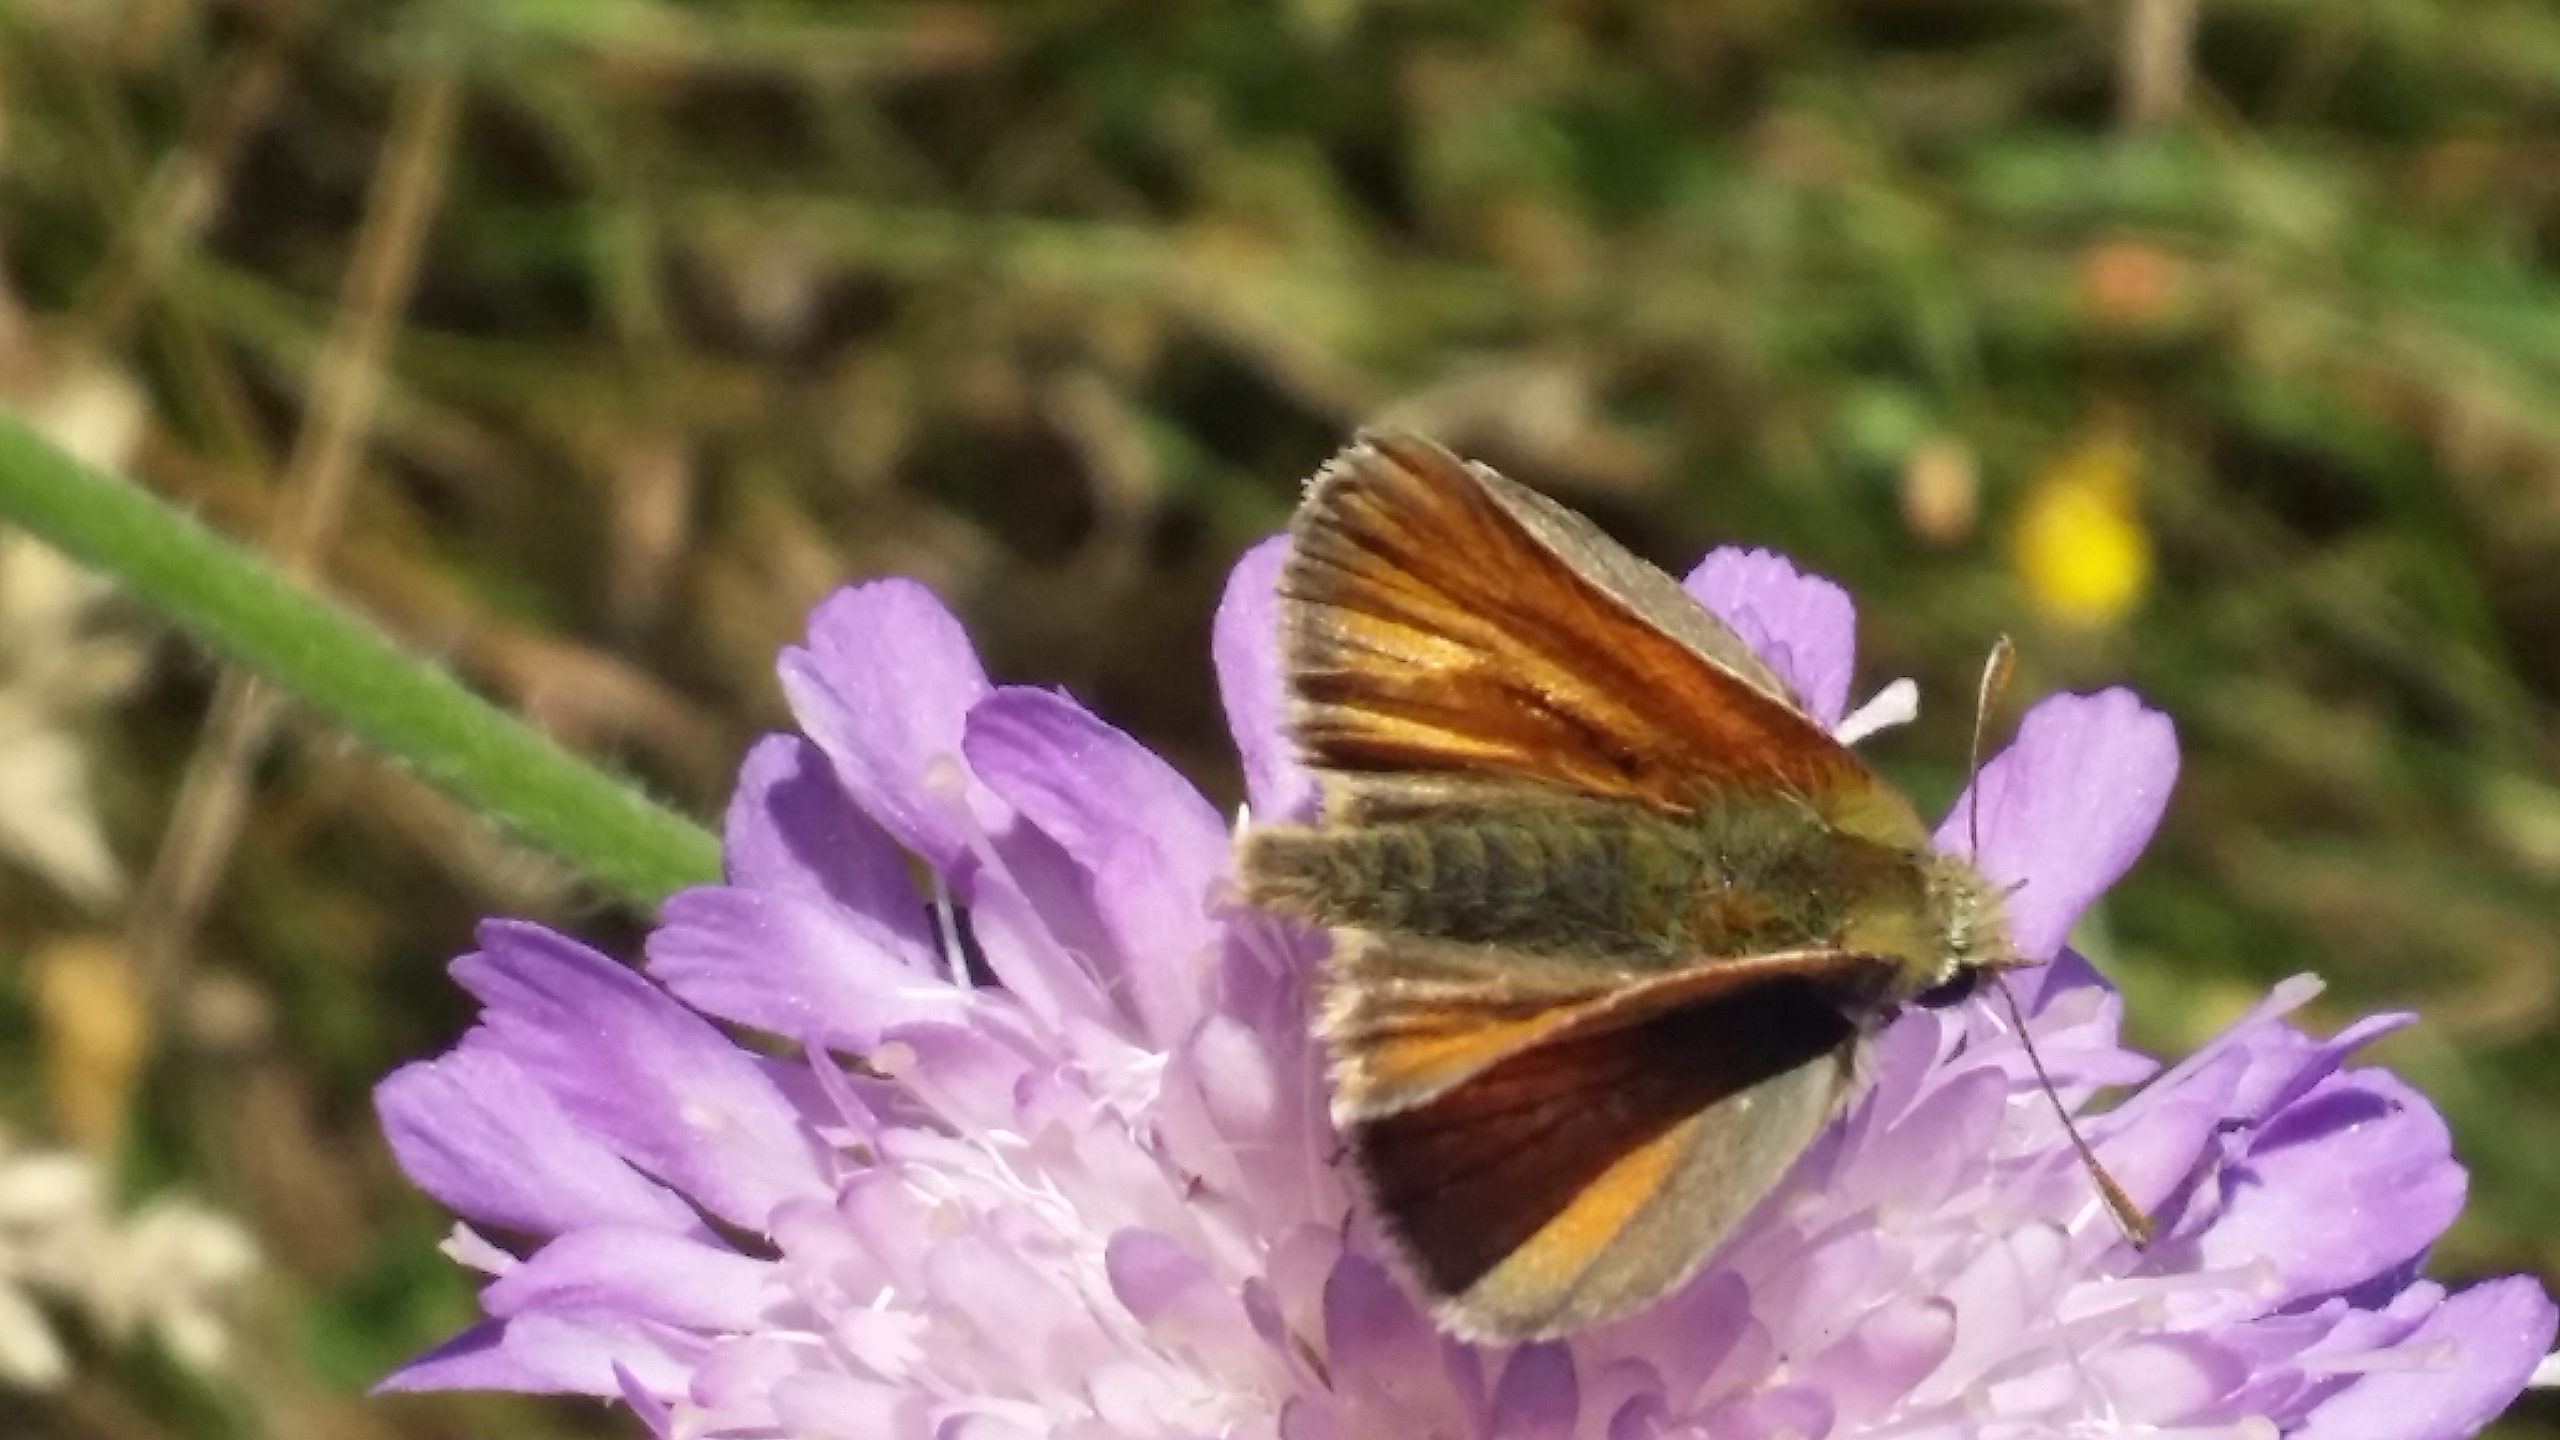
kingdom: Animalia
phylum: Arthropoda
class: Insecta
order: Lepidoptera
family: Hesperiidae
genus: Thymelicus
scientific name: Thymelicus sylvestris
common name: Skråstregbredpande
